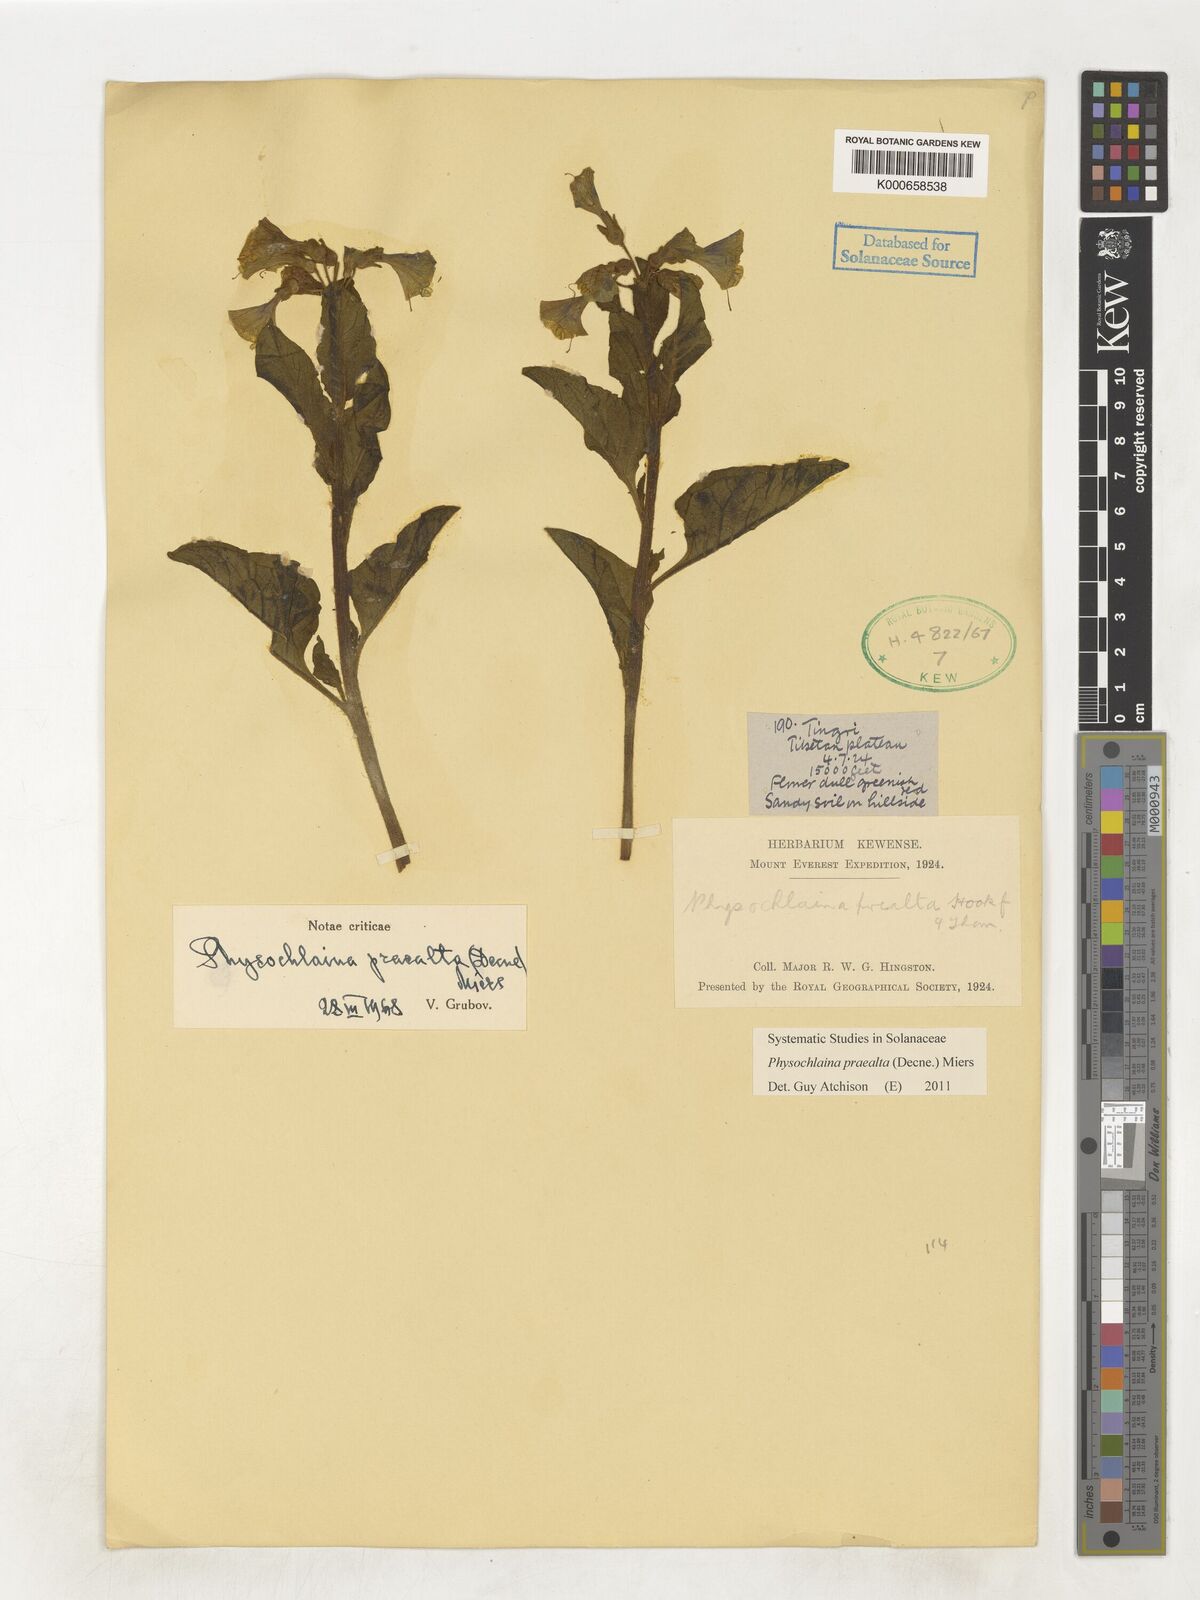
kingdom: Plantae
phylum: Tracheophyta
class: Magnoliopsida
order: Solanales
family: Solanaceae
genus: Physochlaina
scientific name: Physochlaina praealta
